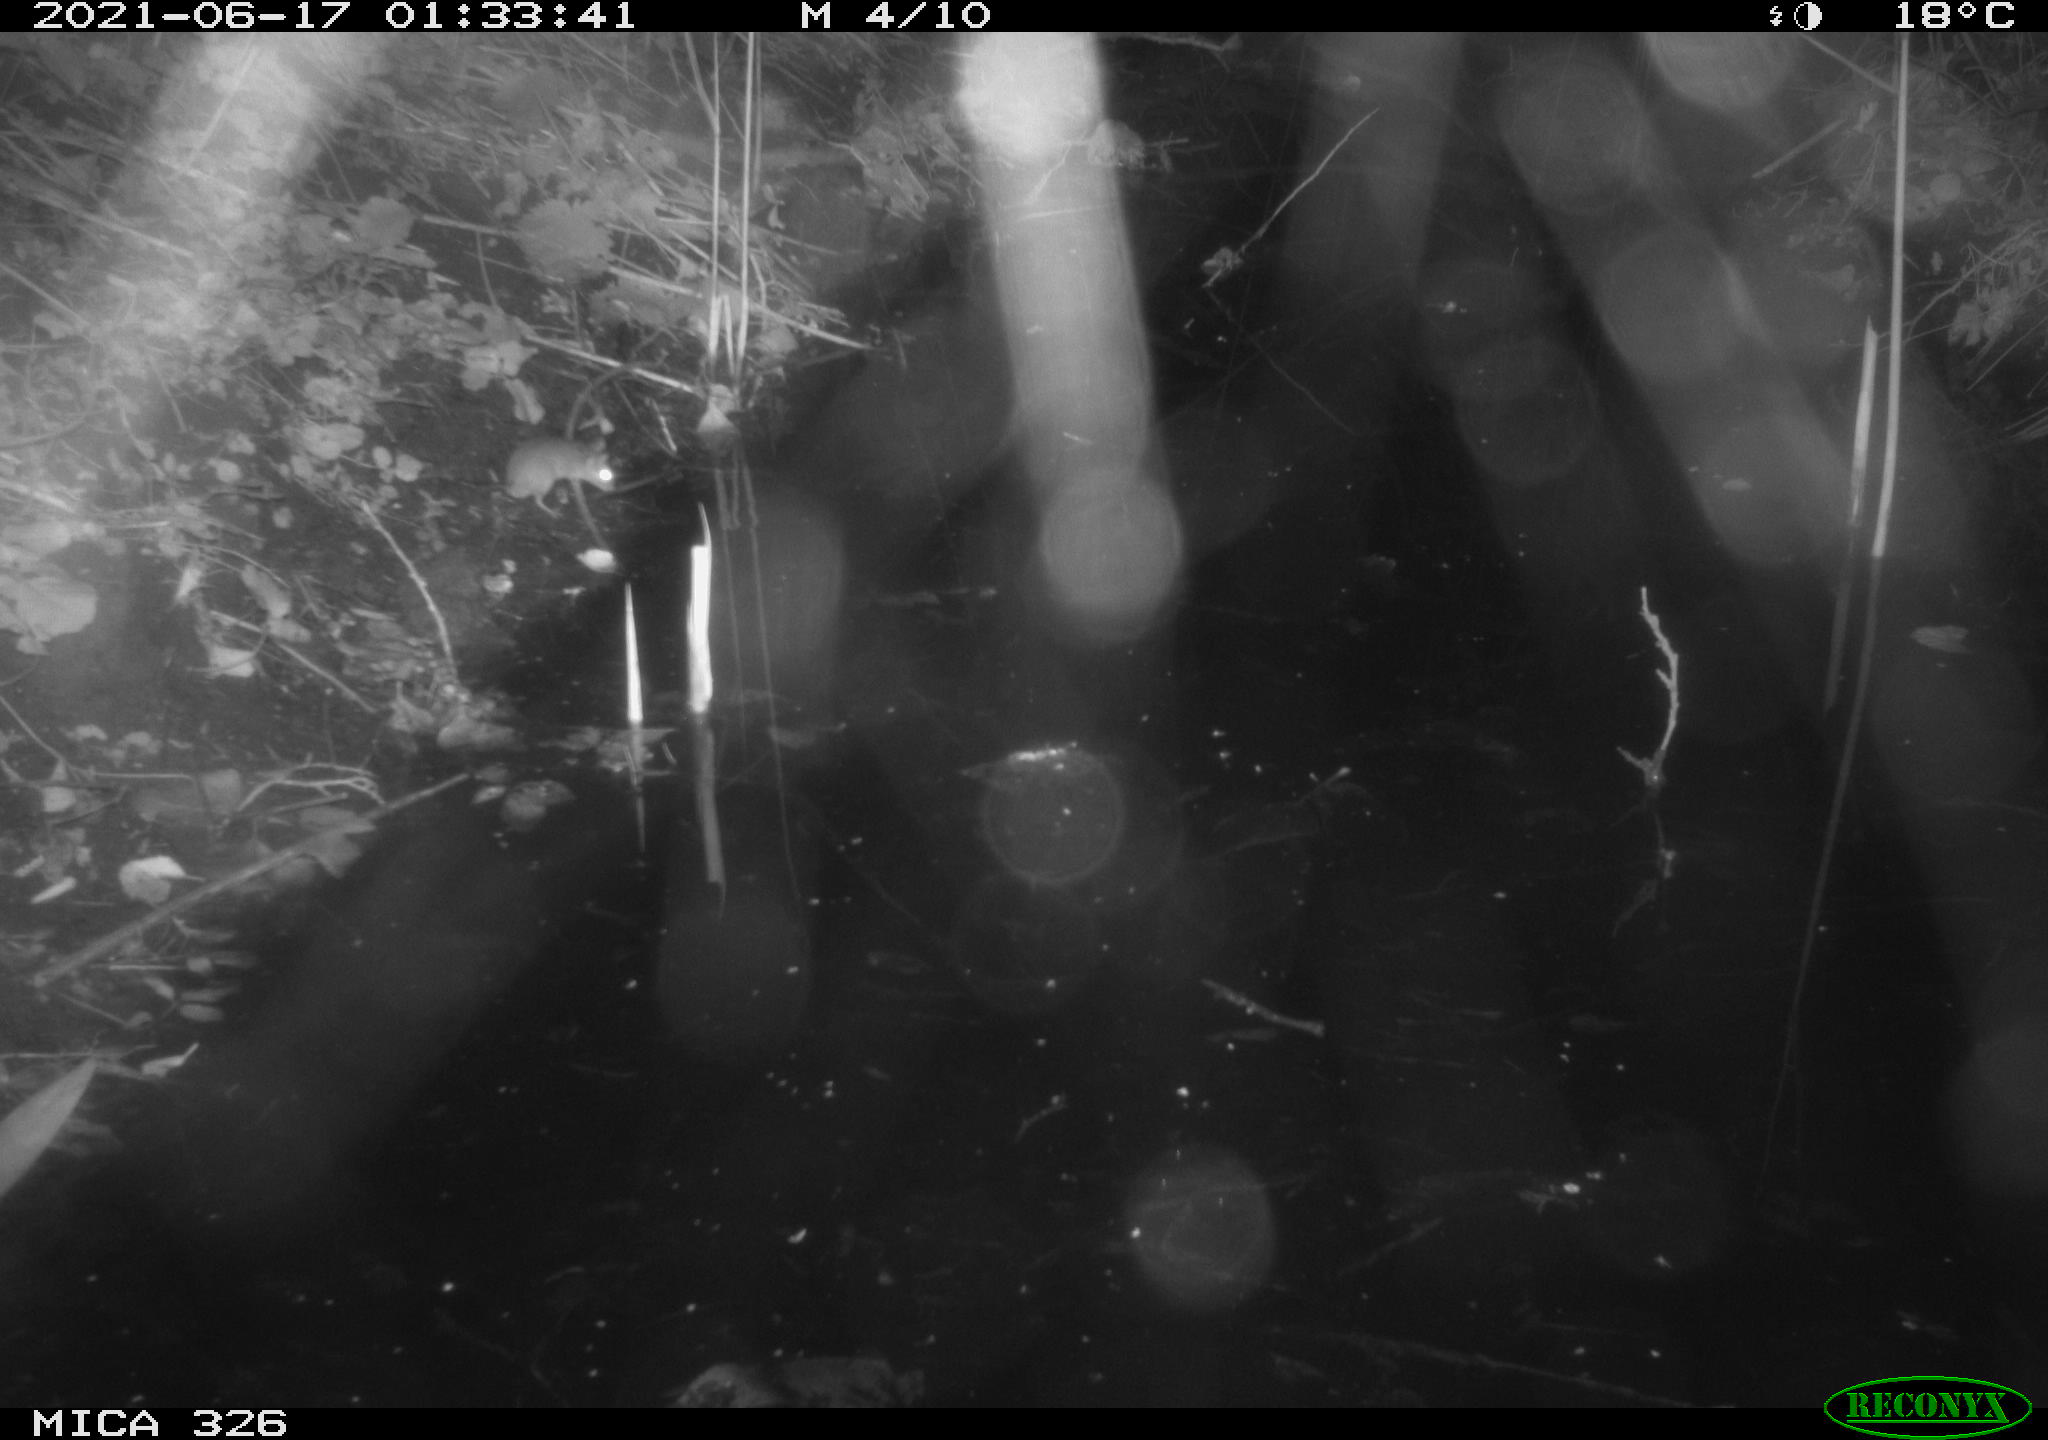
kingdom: Animalia
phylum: Chordata
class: Mammalia
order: Rodentia
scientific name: Rodentia
